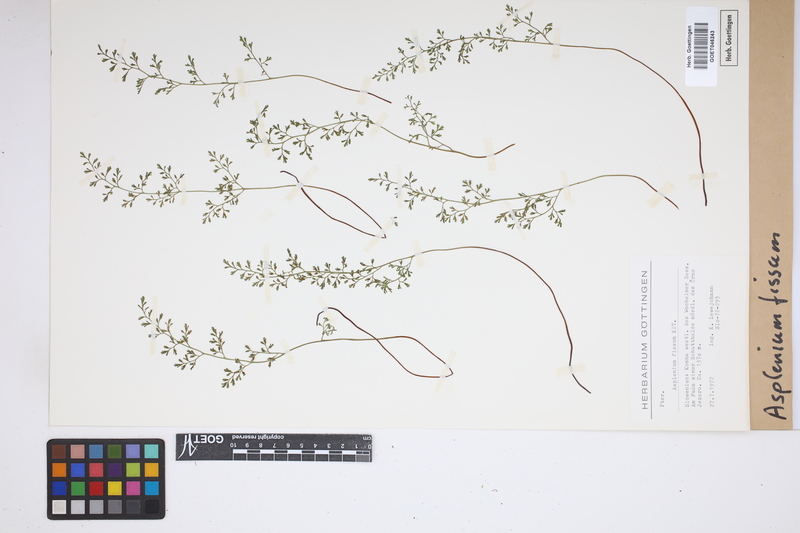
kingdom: Plantae
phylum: Tracheophyta
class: Polypodiopsida
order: Polypodiales
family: Aspleniaceae
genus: Asplenium
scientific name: Asplenium fissum
